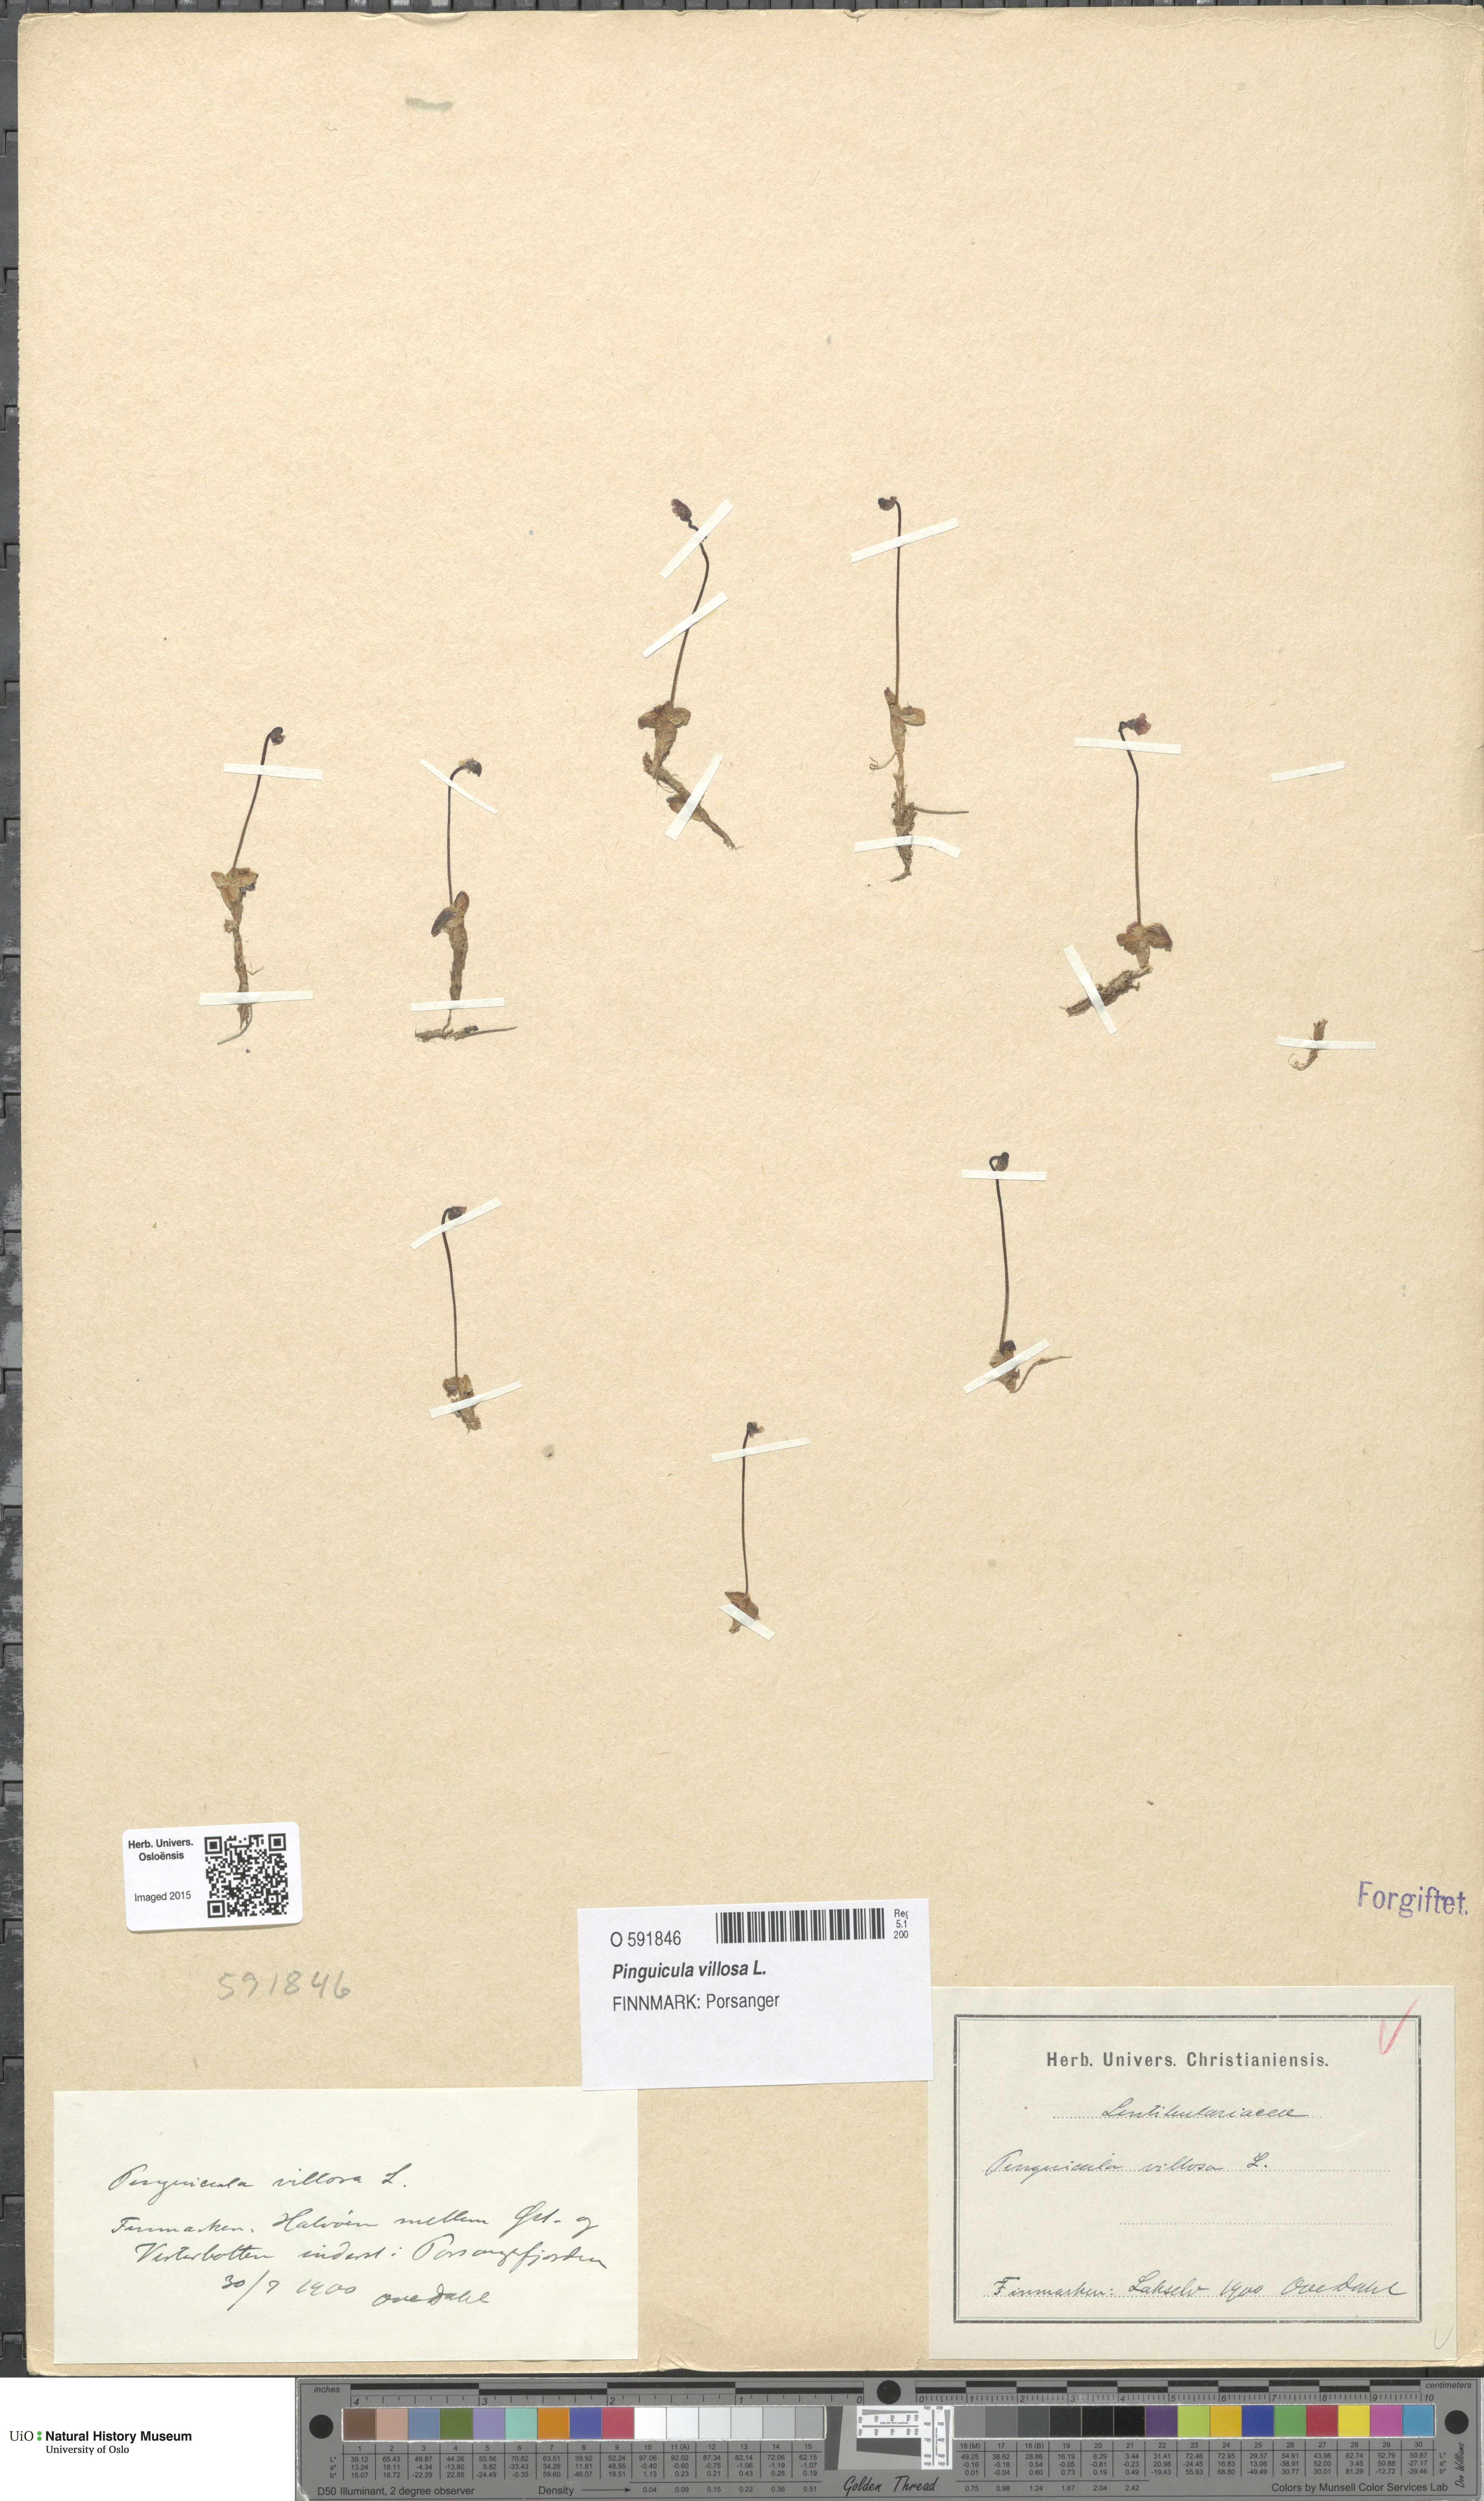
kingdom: Plantae
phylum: Tracheophyta
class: Magnoliopsida
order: Lamiales
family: Lentibulariaceae
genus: Pinguicula
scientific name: Pinguicula villosa
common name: Hairy butterwort
